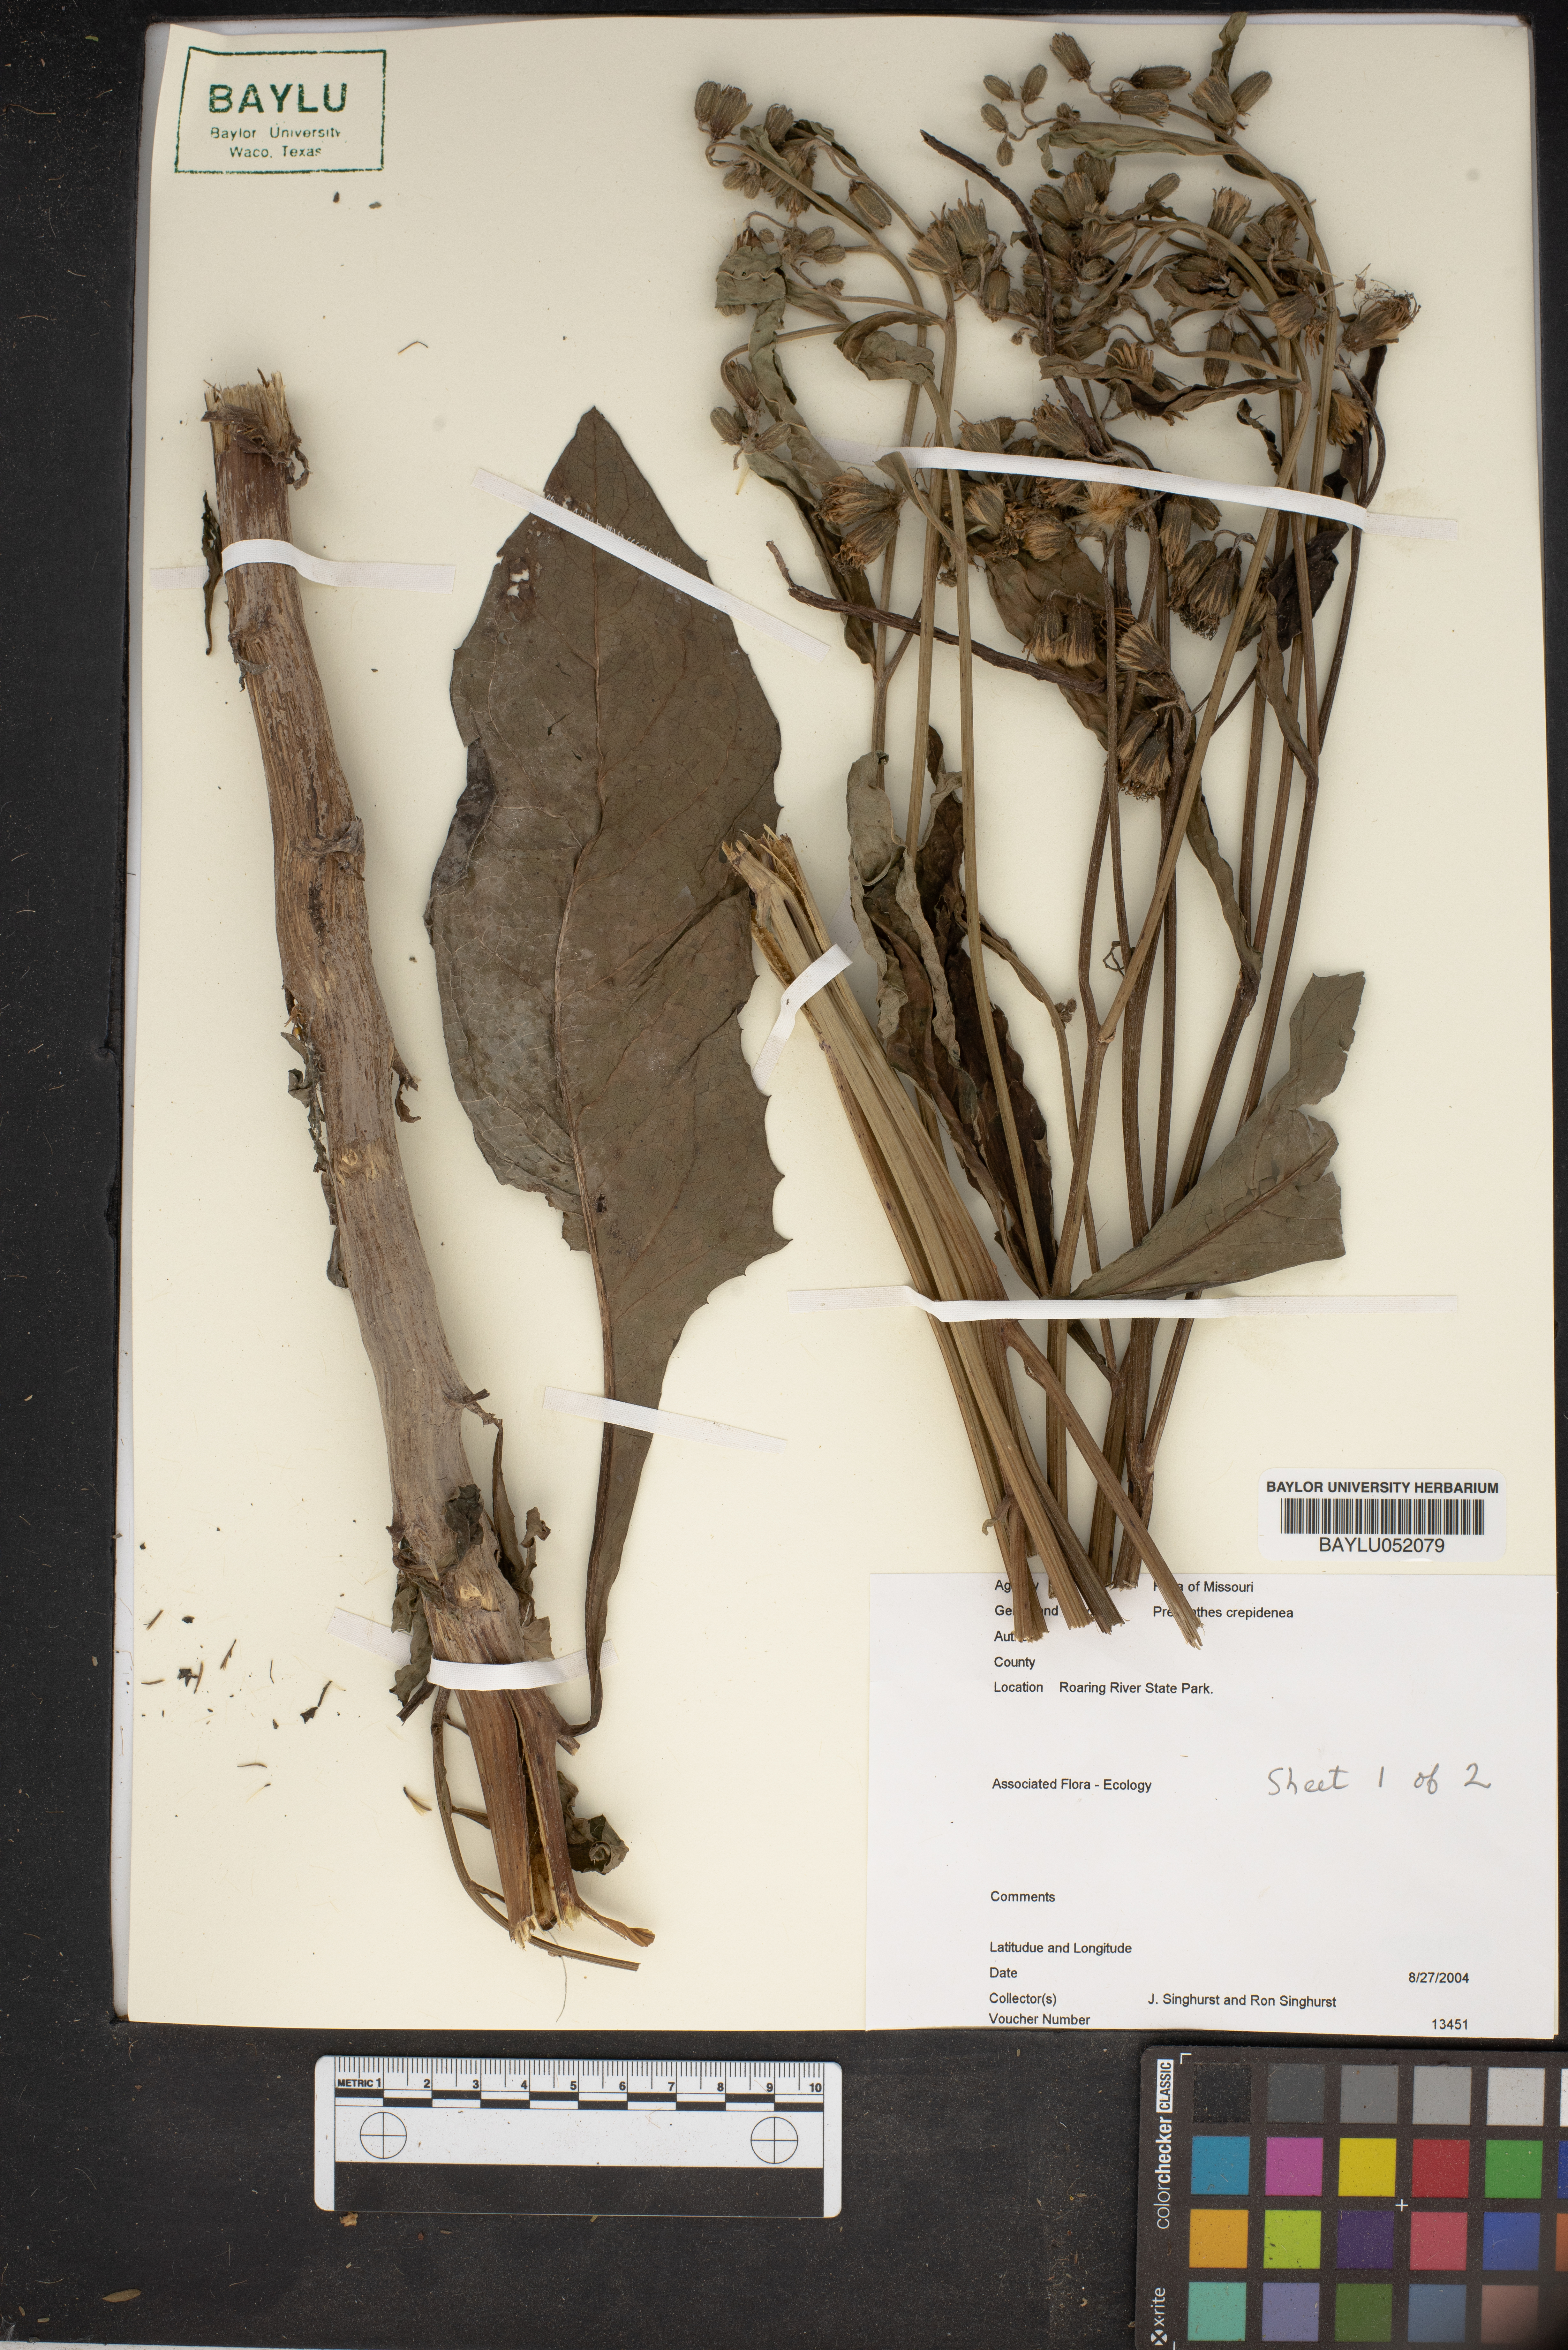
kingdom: Plantae
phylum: Tracheophyta
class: Magnoliopsida
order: Asterales
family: Asteraceae
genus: Nabalus
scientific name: Nabalus crepidineus
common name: Nodding rattlesnakeroot
